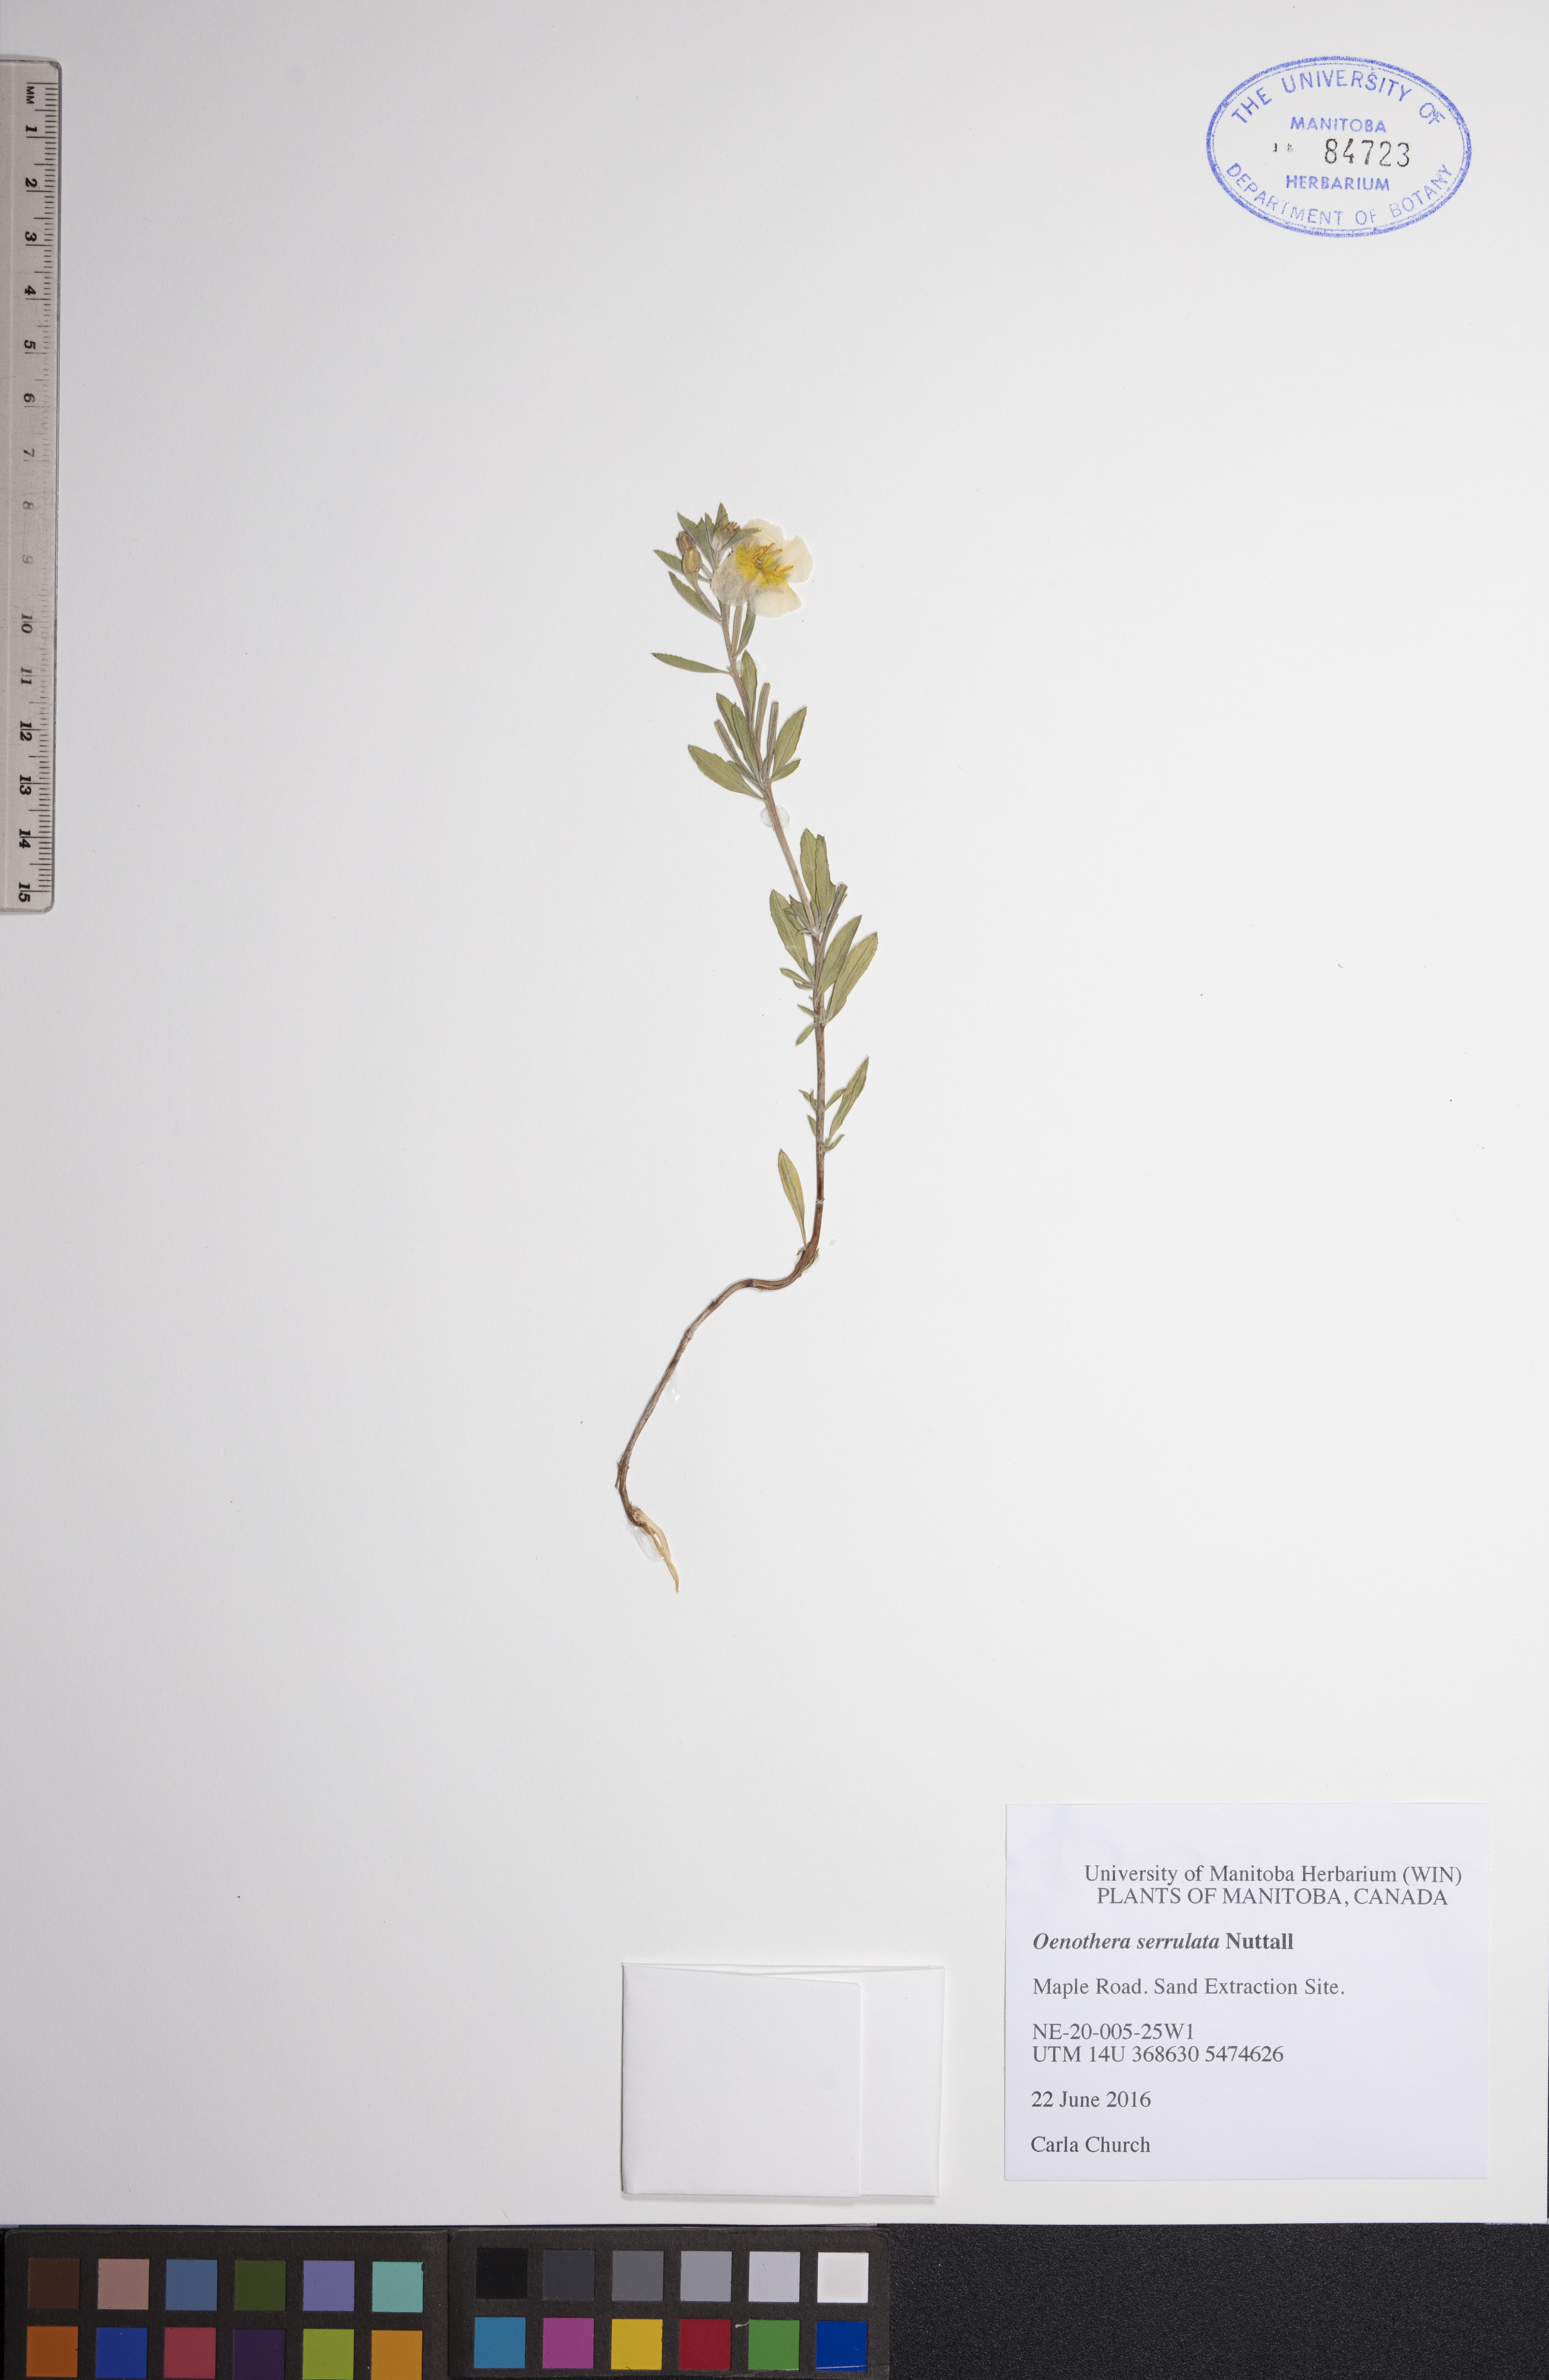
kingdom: Plantae
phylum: Tracheophyta
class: Magnoliopsida
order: Myrtales
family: Onagraceae
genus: Oenothera
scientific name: Oenothera serrulata
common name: Half-shrub calylophus
